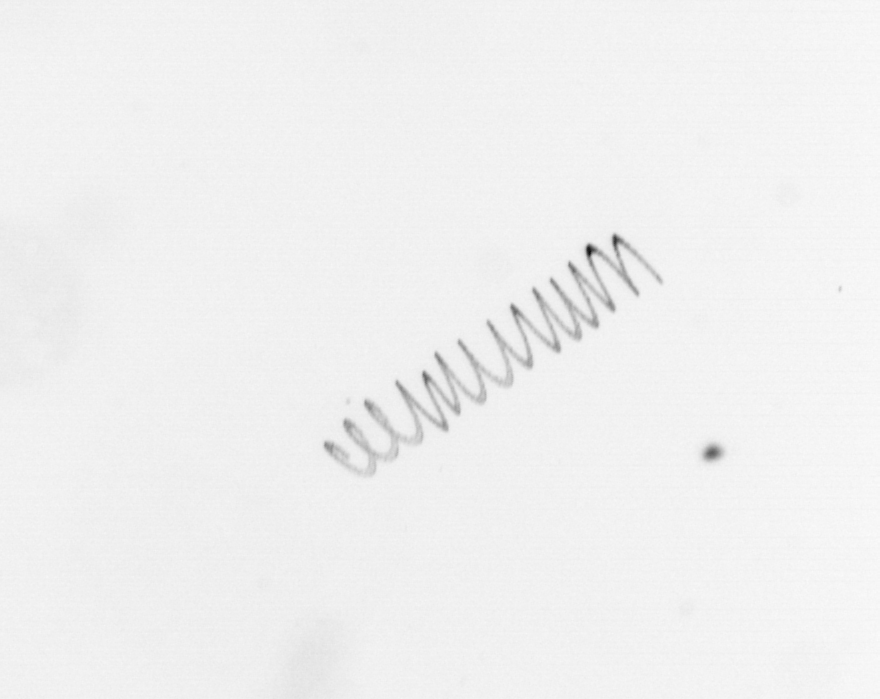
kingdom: Chromista
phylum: Ochrophyta
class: Bacillariophyceae
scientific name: Bacillariophyceae
